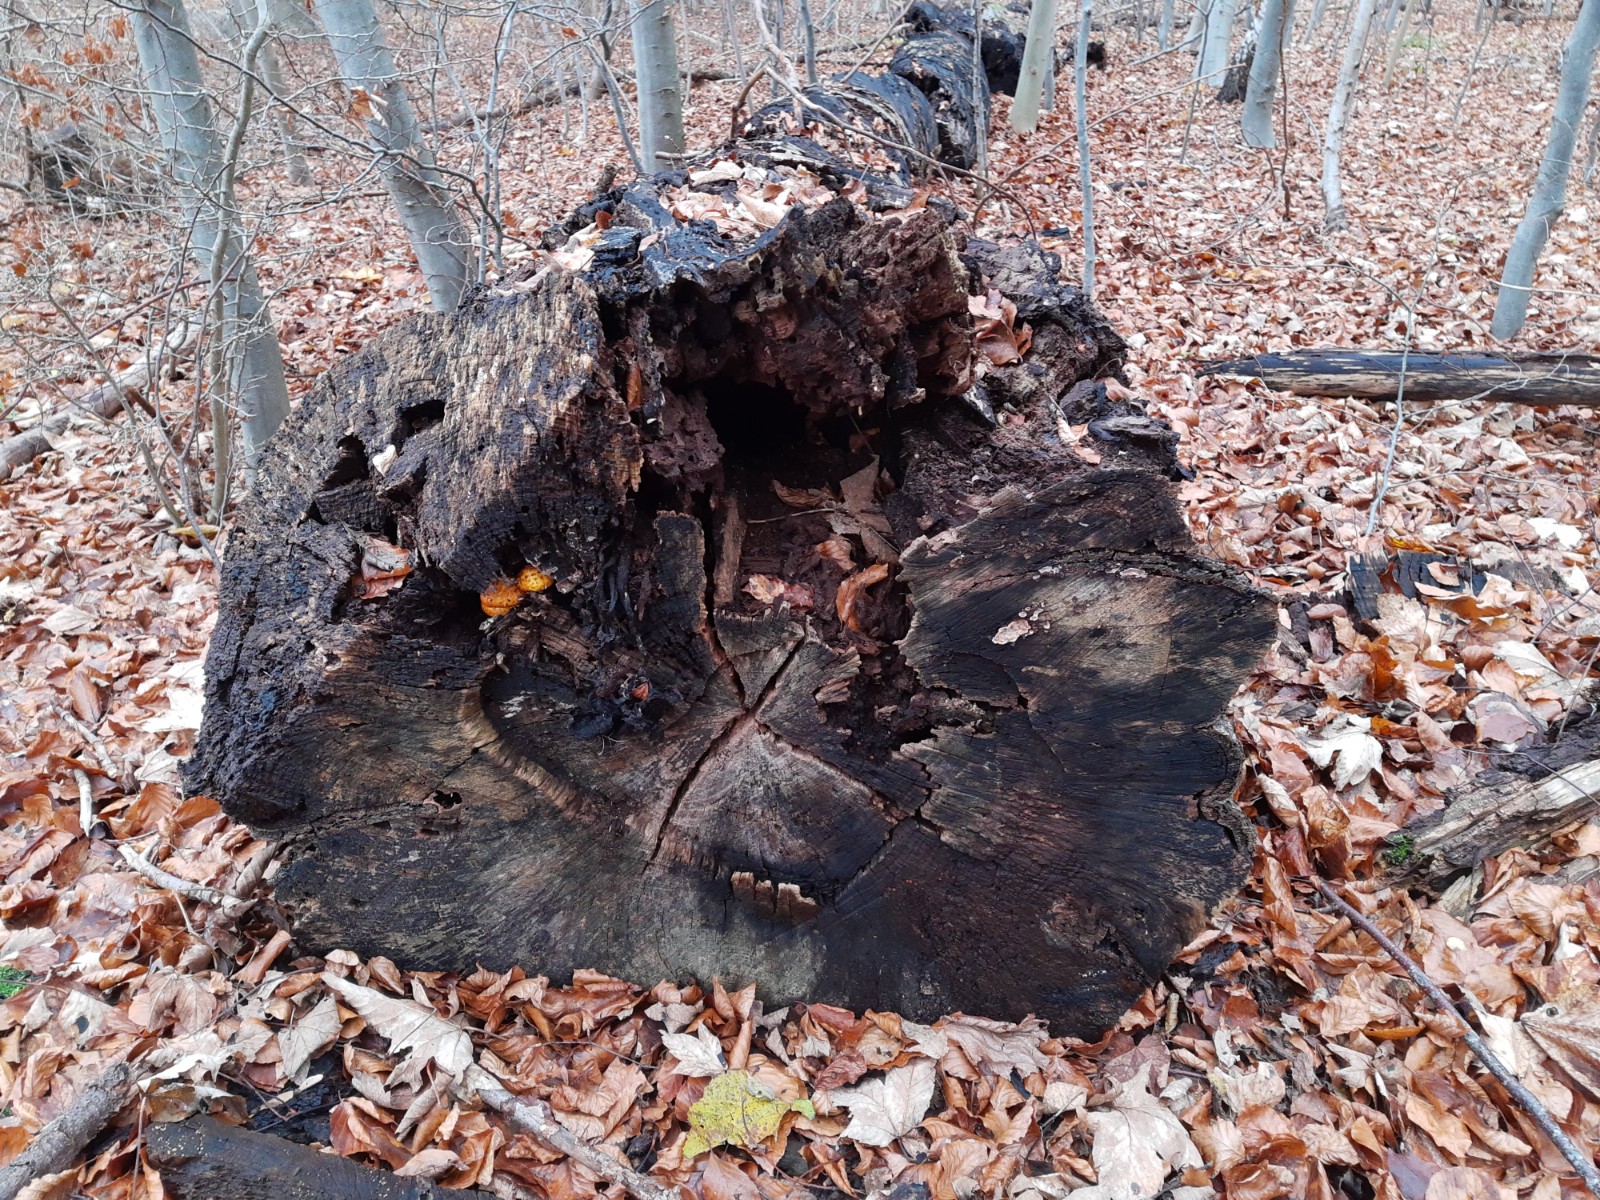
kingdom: Fungi
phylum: Basidiomycota
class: Agaricomycetes
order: Agaricales
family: Strophariaceae
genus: Pholiota
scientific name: Pholiota adiposa
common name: højtsiddende skælhat
